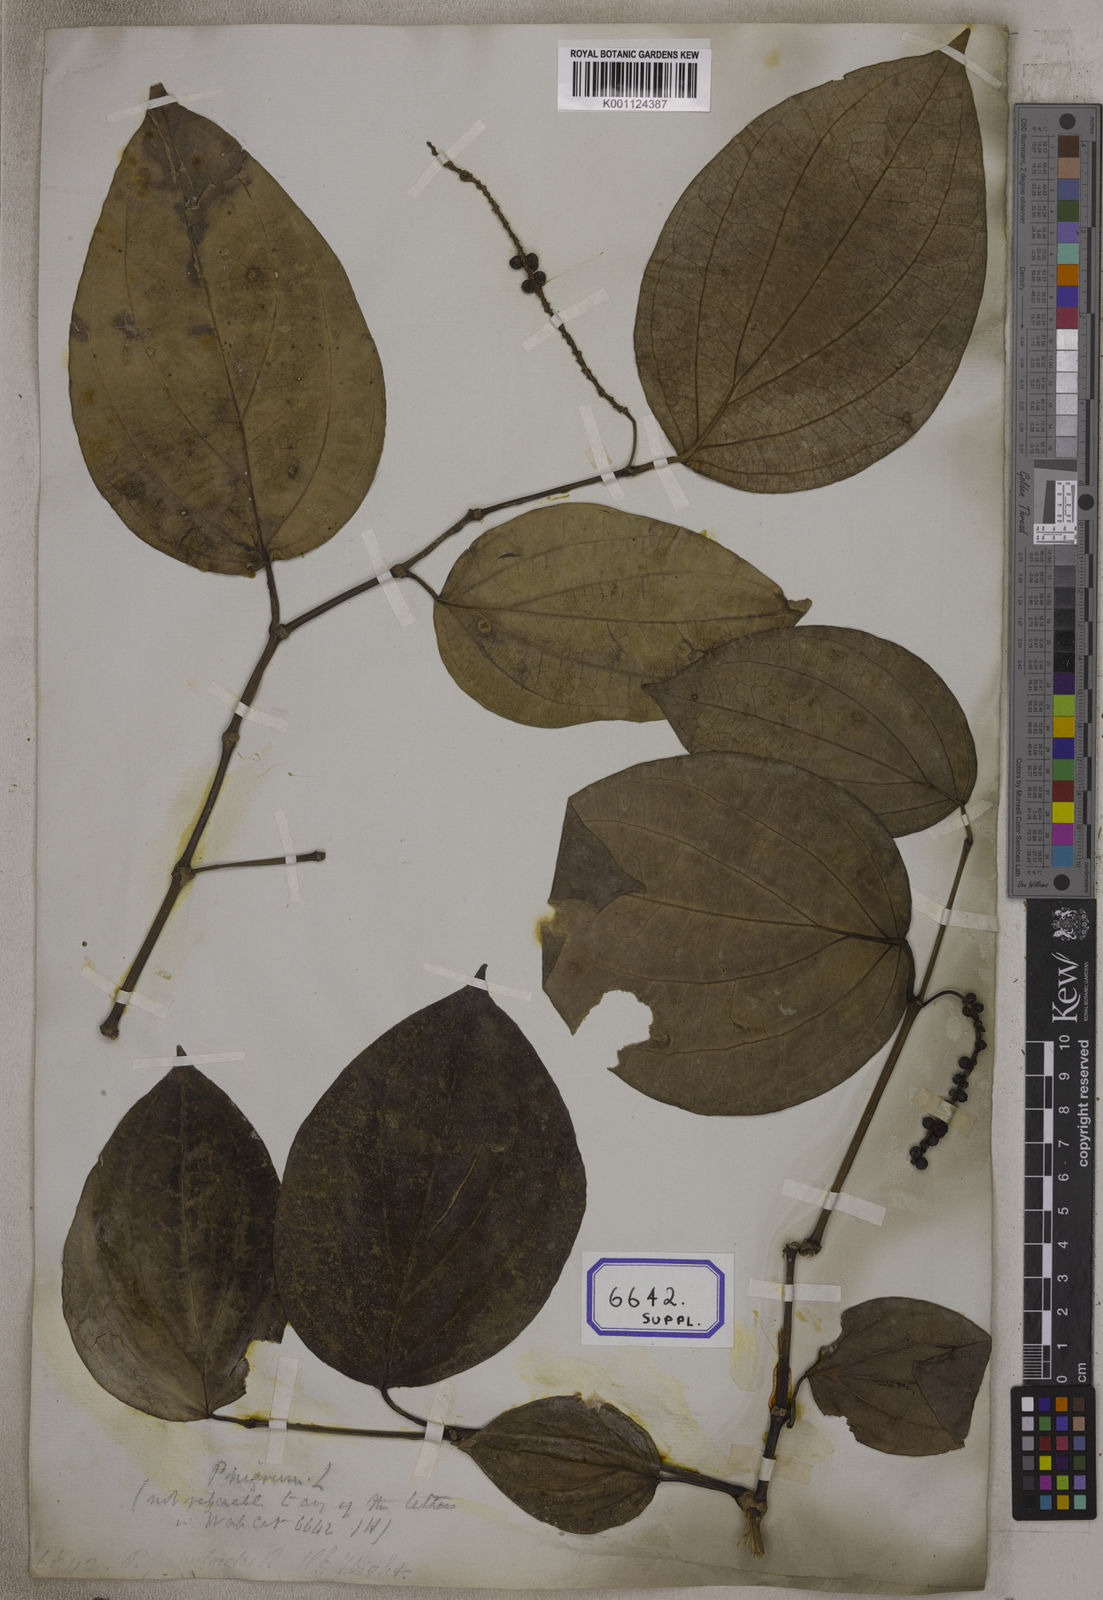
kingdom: Plantae
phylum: Tracheophyta
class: Magnoliopsida
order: Piperales
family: Piperaceae
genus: Piper
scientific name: Piper
